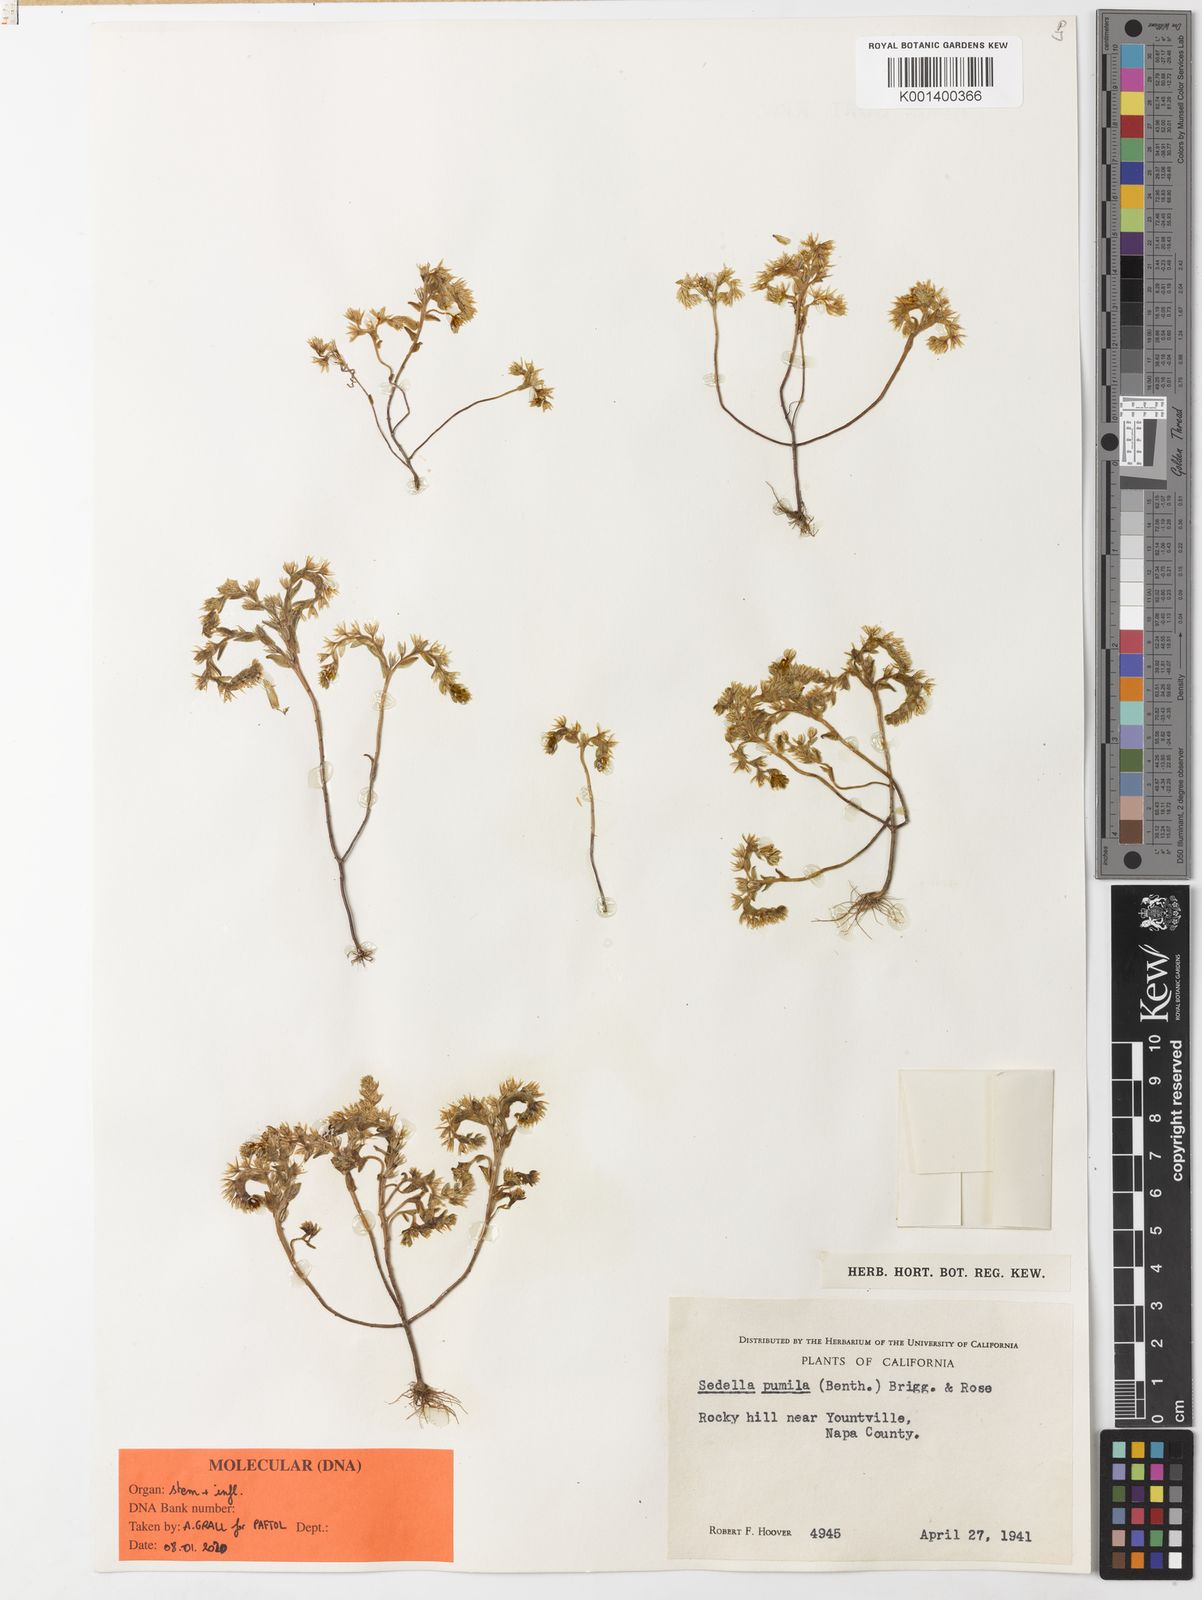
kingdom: Plantae
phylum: Tracheophyta
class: Magnoliopsida
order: Saxifragales
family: Crassulaceae
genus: Sedella
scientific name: Sedella pumila
